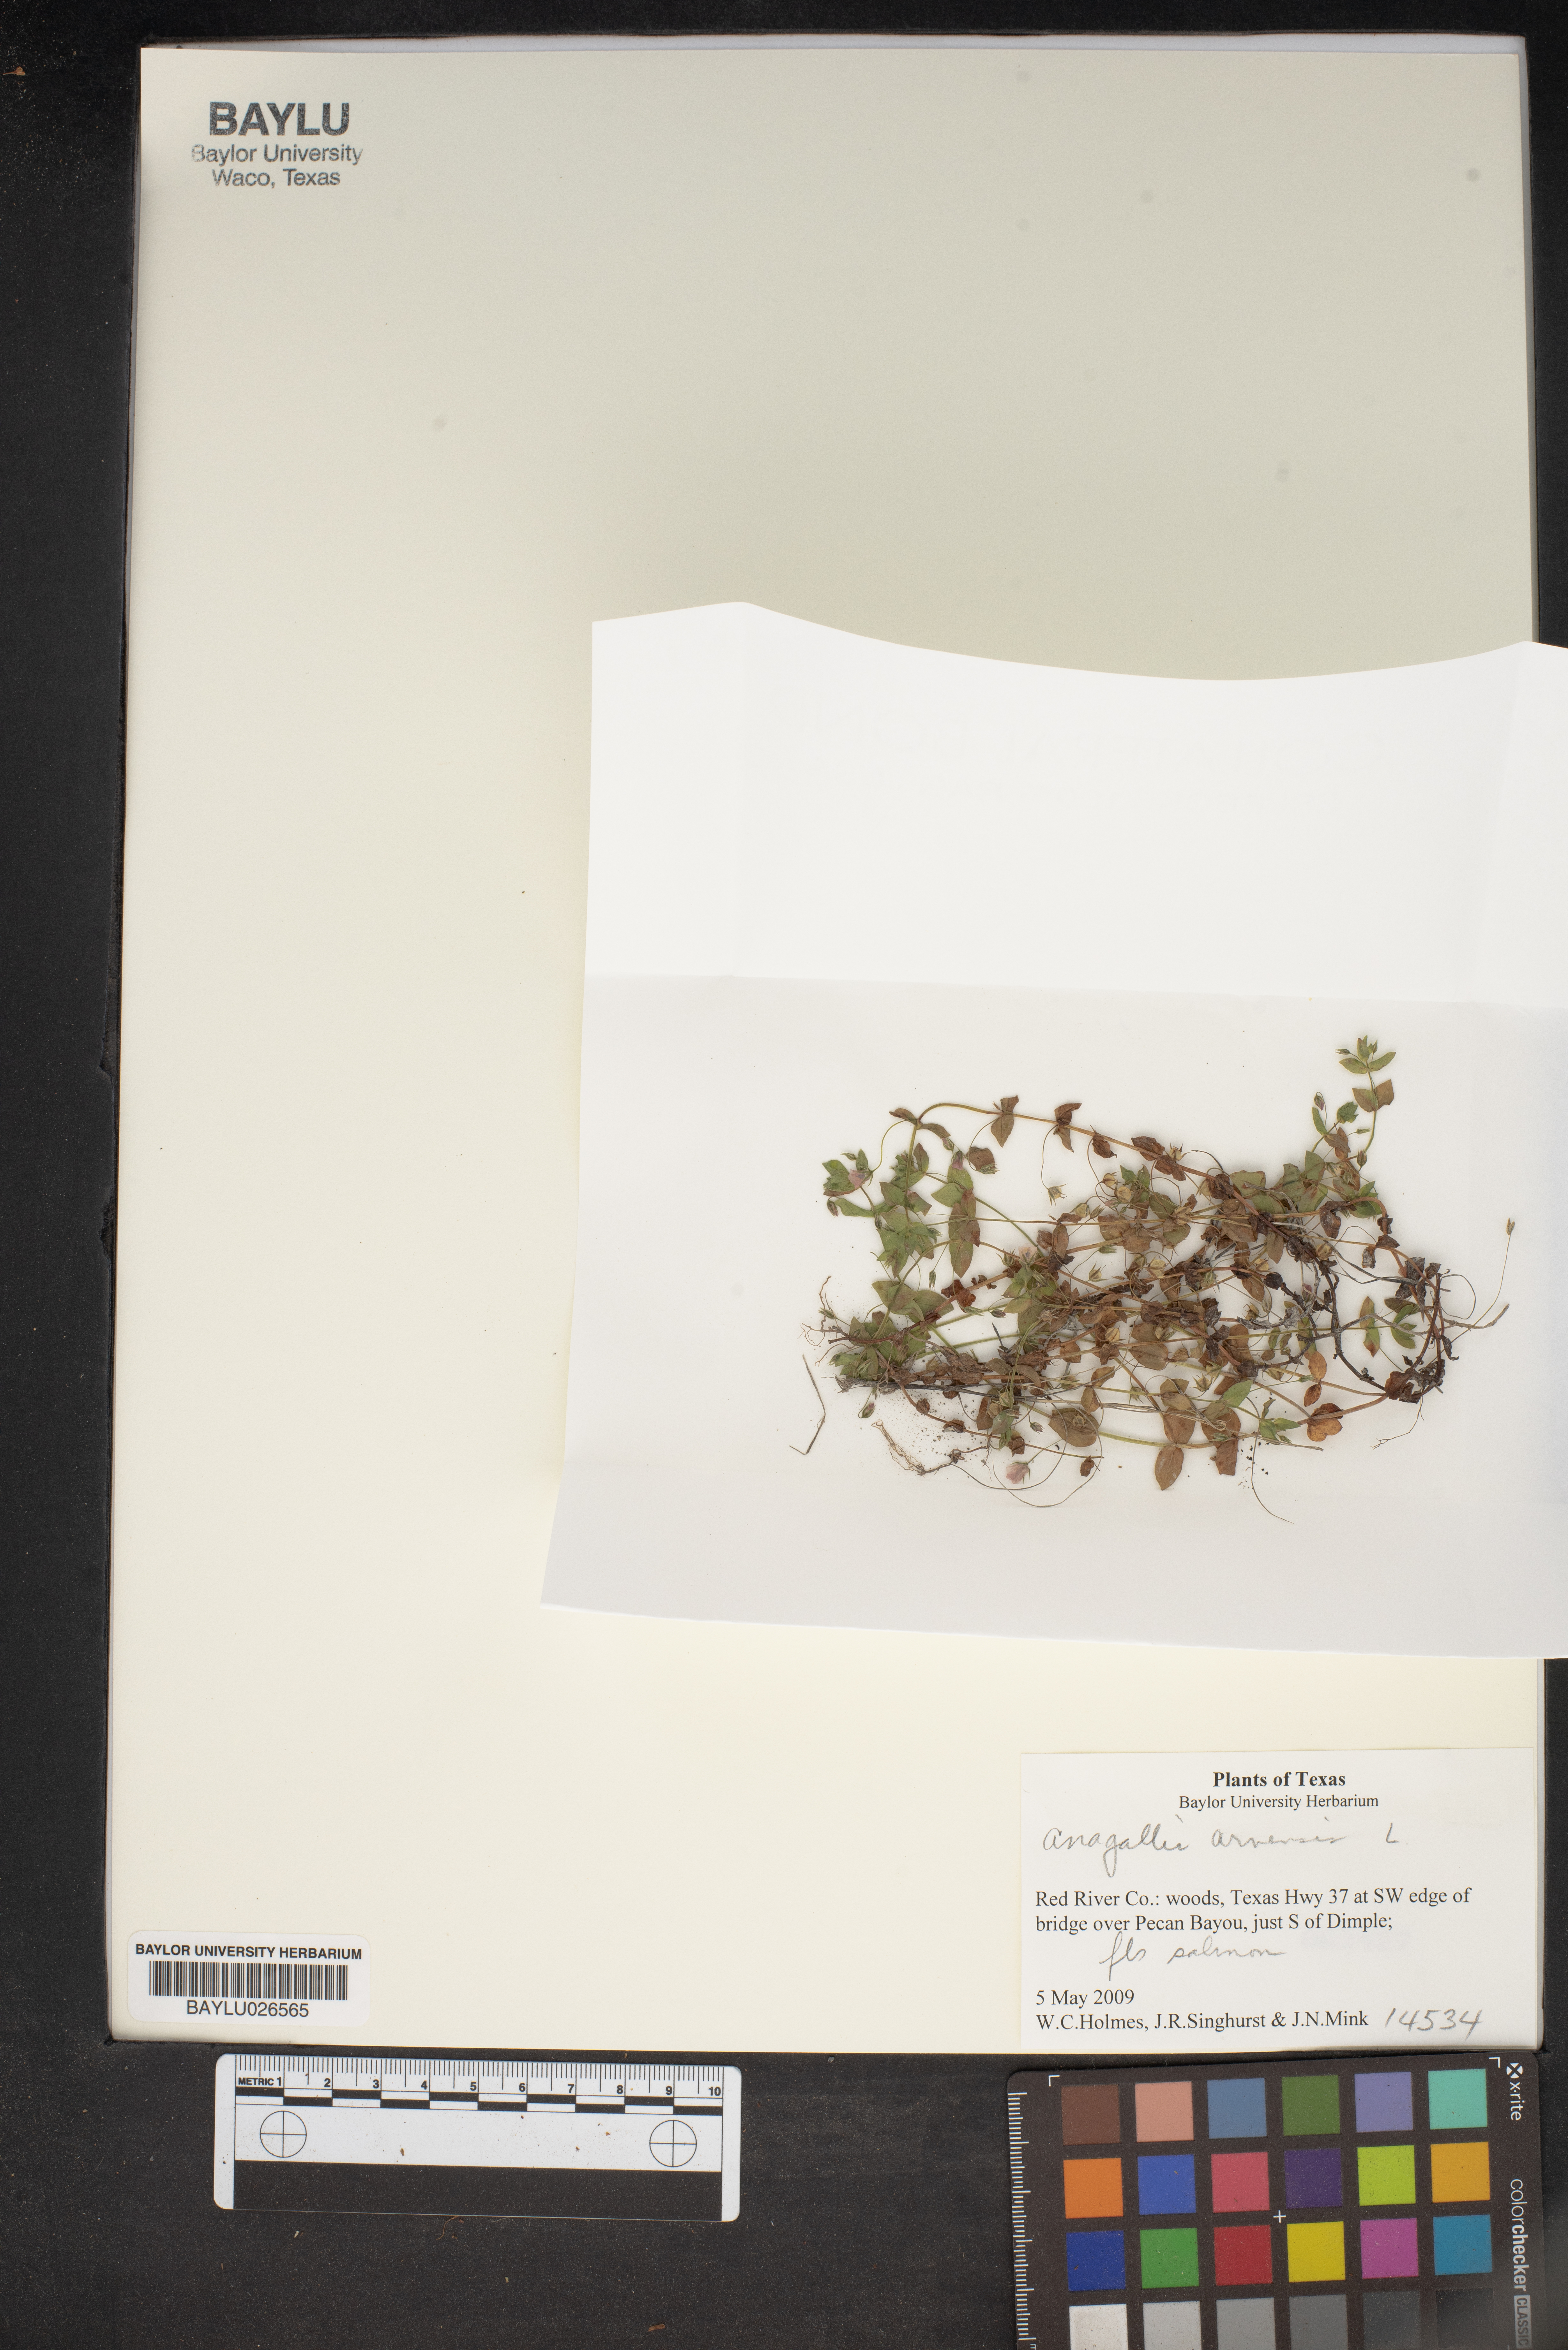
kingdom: Plantae
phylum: Tracheophyta
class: Magnoliopsida
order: Ericales
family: Primulaceae
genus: Lysimachia
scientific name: Lysimachia arvensis
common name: Scarlet pimpernel
